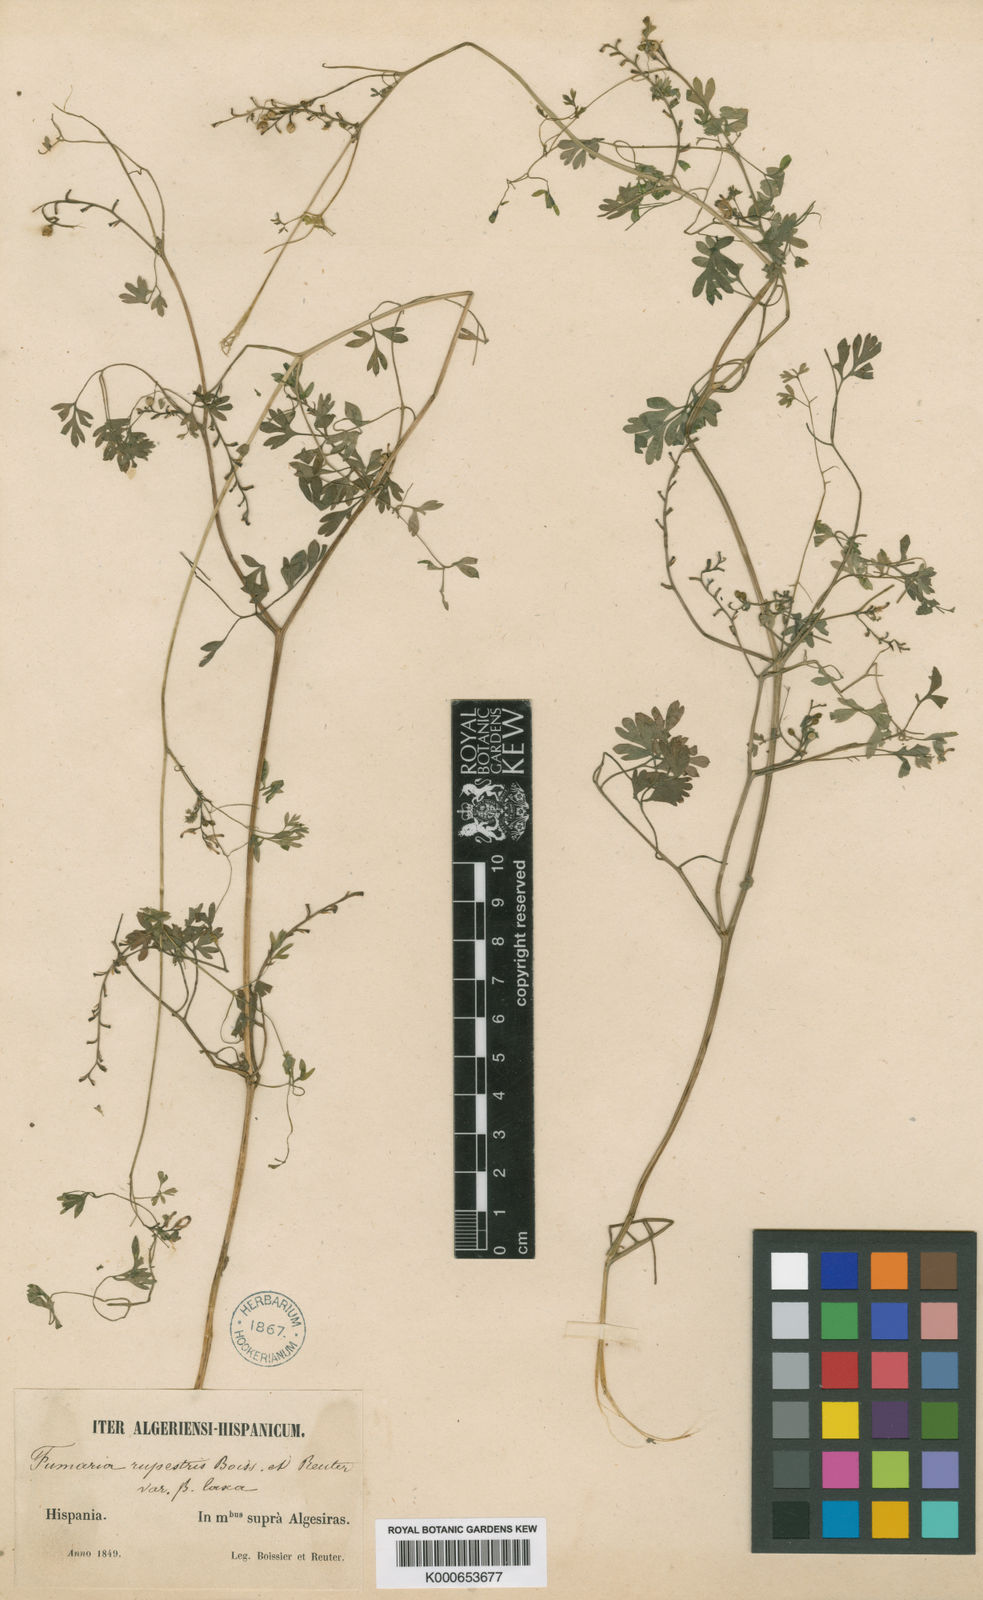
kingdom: Plantae
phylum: Tracheophyta
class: Magnoliopsida
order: Ranunculales
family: Papaveraceae
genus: Fumaria
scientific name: Fumaria rupestris
